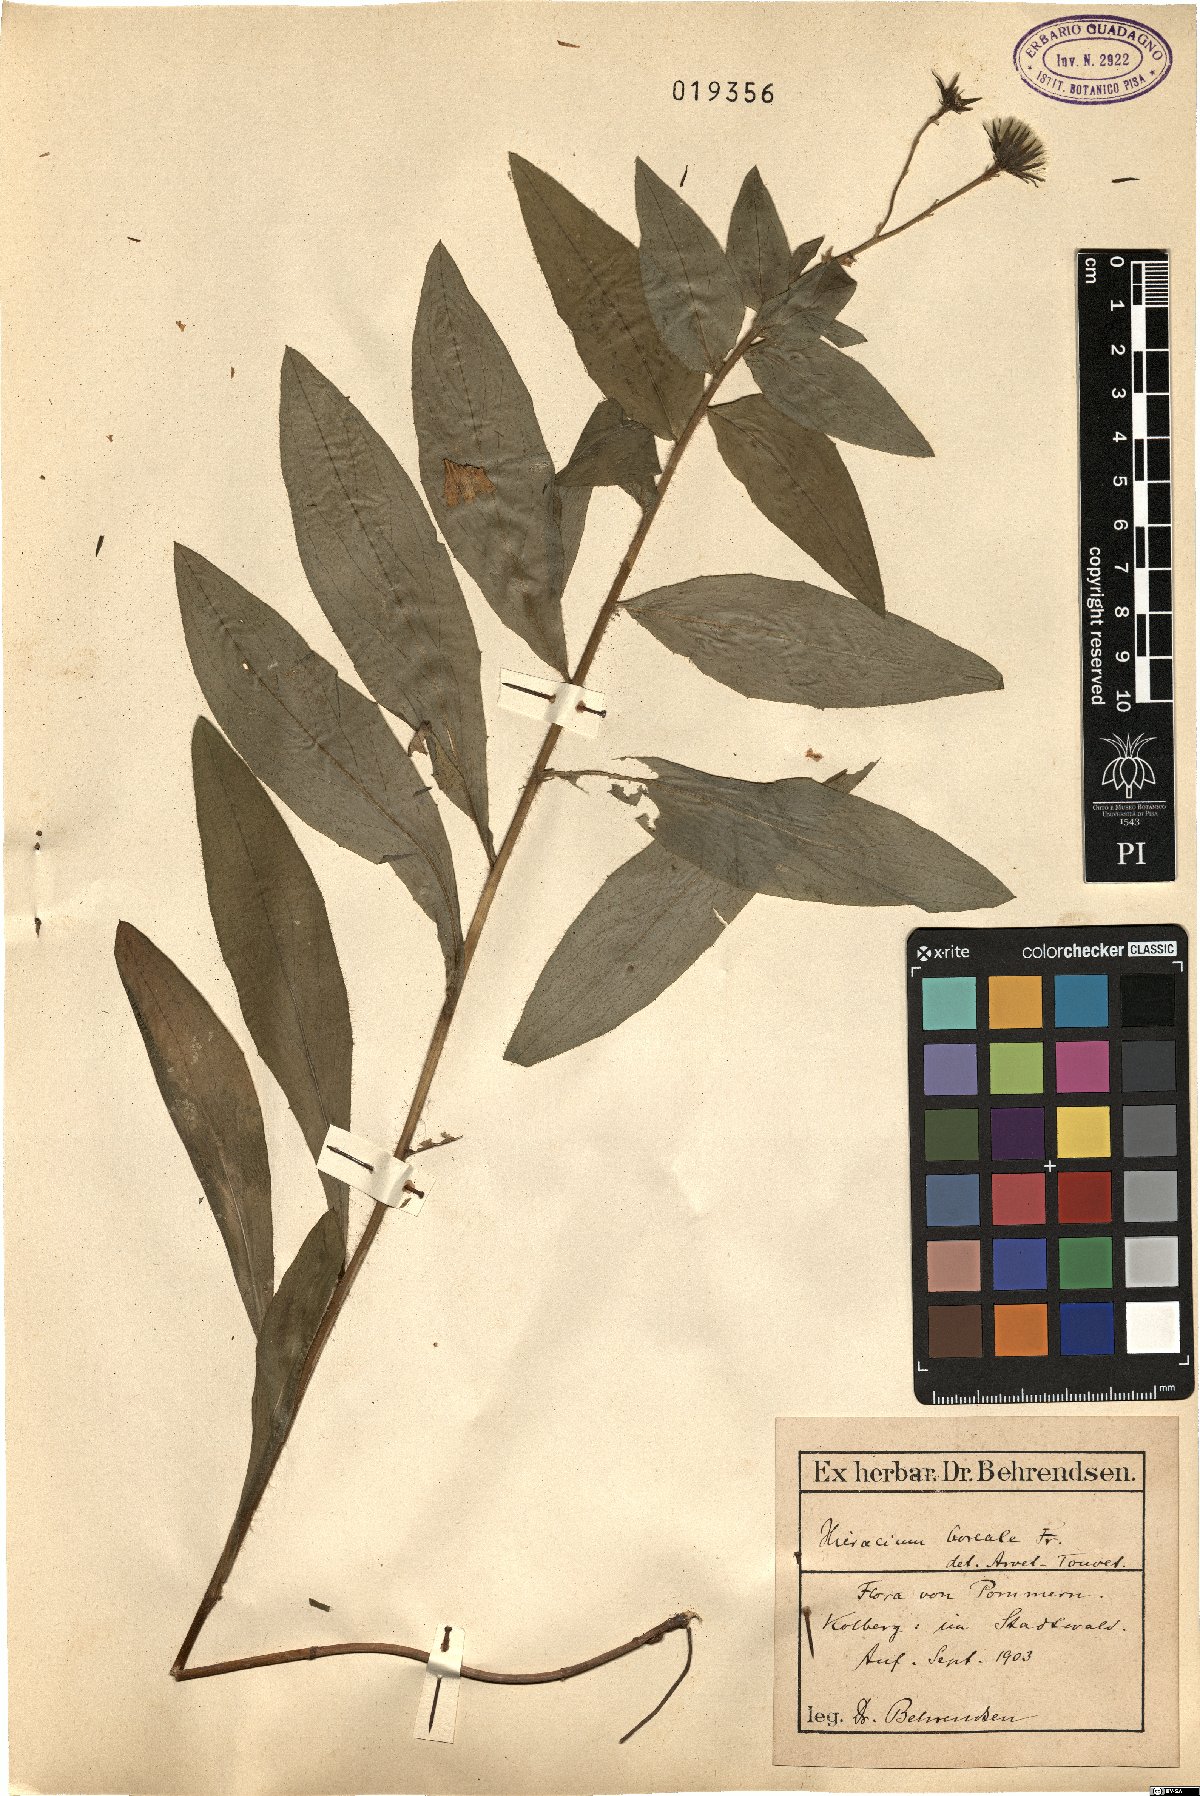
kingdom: Plantae
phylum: Tracheophyta
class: Magnoliopsida
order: Asterales
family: Asteraceae
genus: Hieracium
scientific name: Hieracium sabaudum
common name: New england hawkweed
